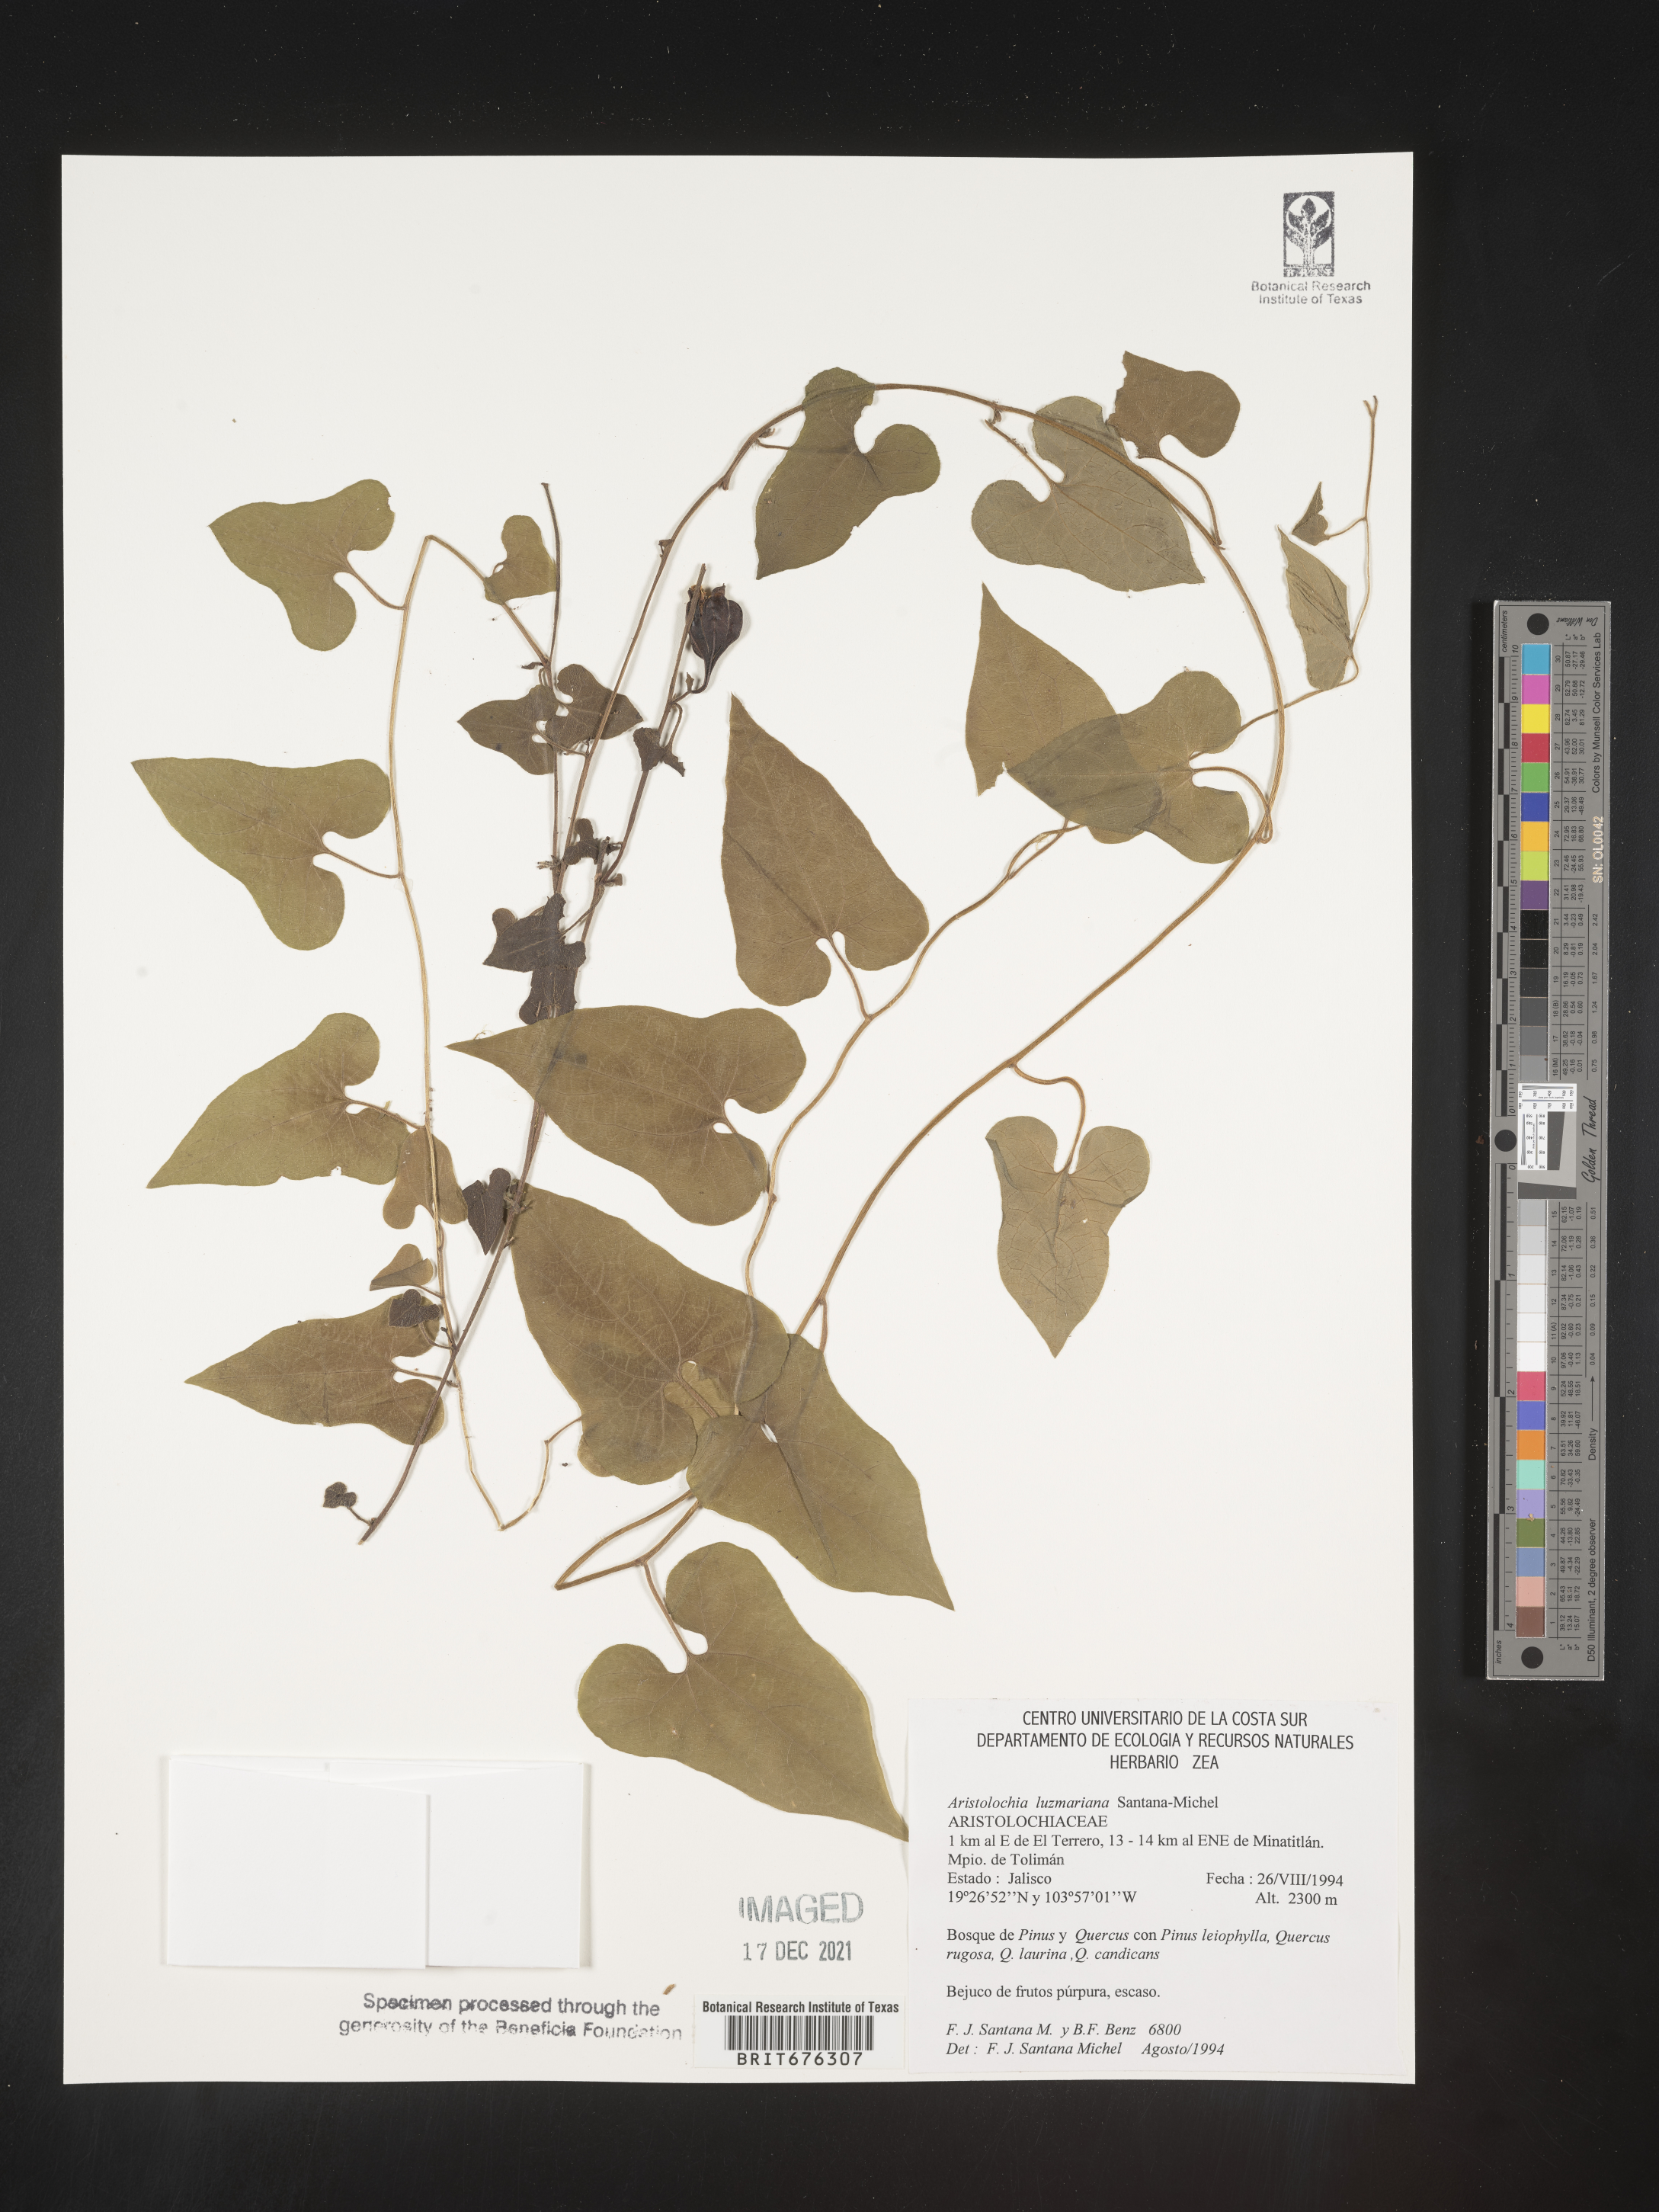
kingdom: Plantae
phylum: Tracheophyta
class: Magnoliopsida
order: Piperales
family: Aristolochiaceae
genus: Aristolochia
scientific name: Aristolochia
